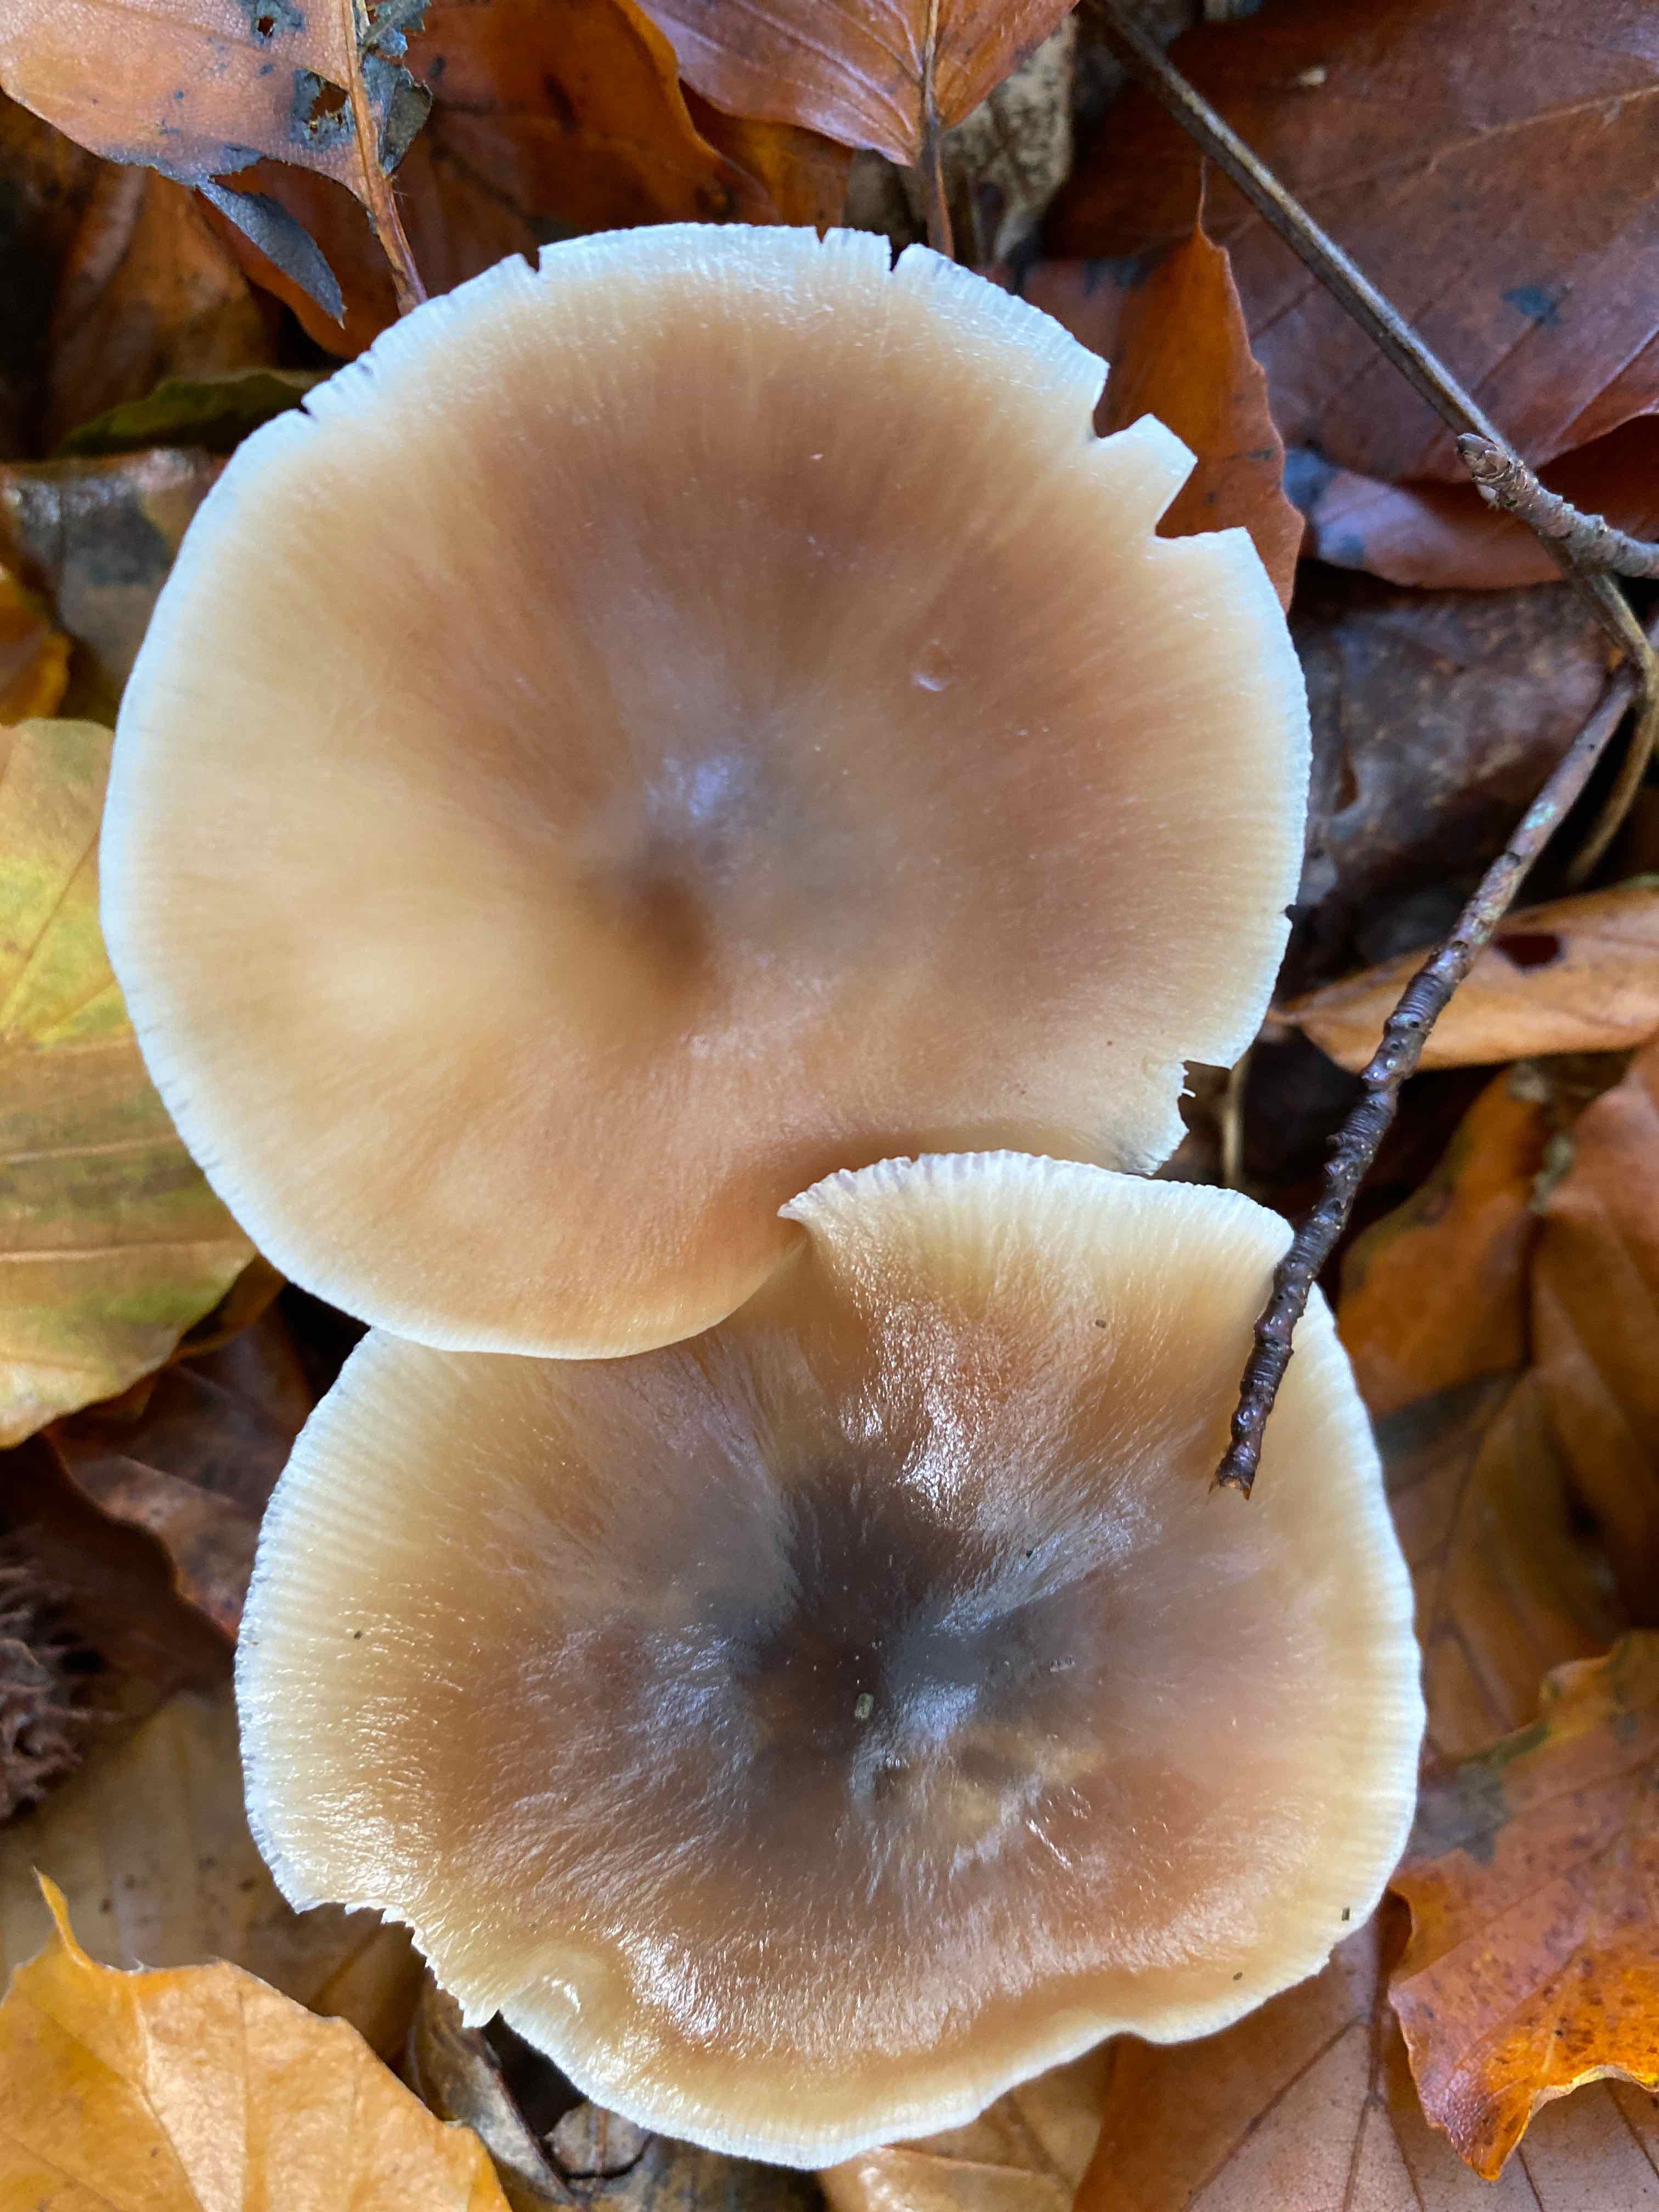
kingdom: Fungi
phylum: Basidiomycota
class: Agaricomycetes
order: Agaricales
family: Omphalotaceae
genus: Rhodocollybia
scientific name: Rhodocollybia asema
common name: horngrå fladhat
